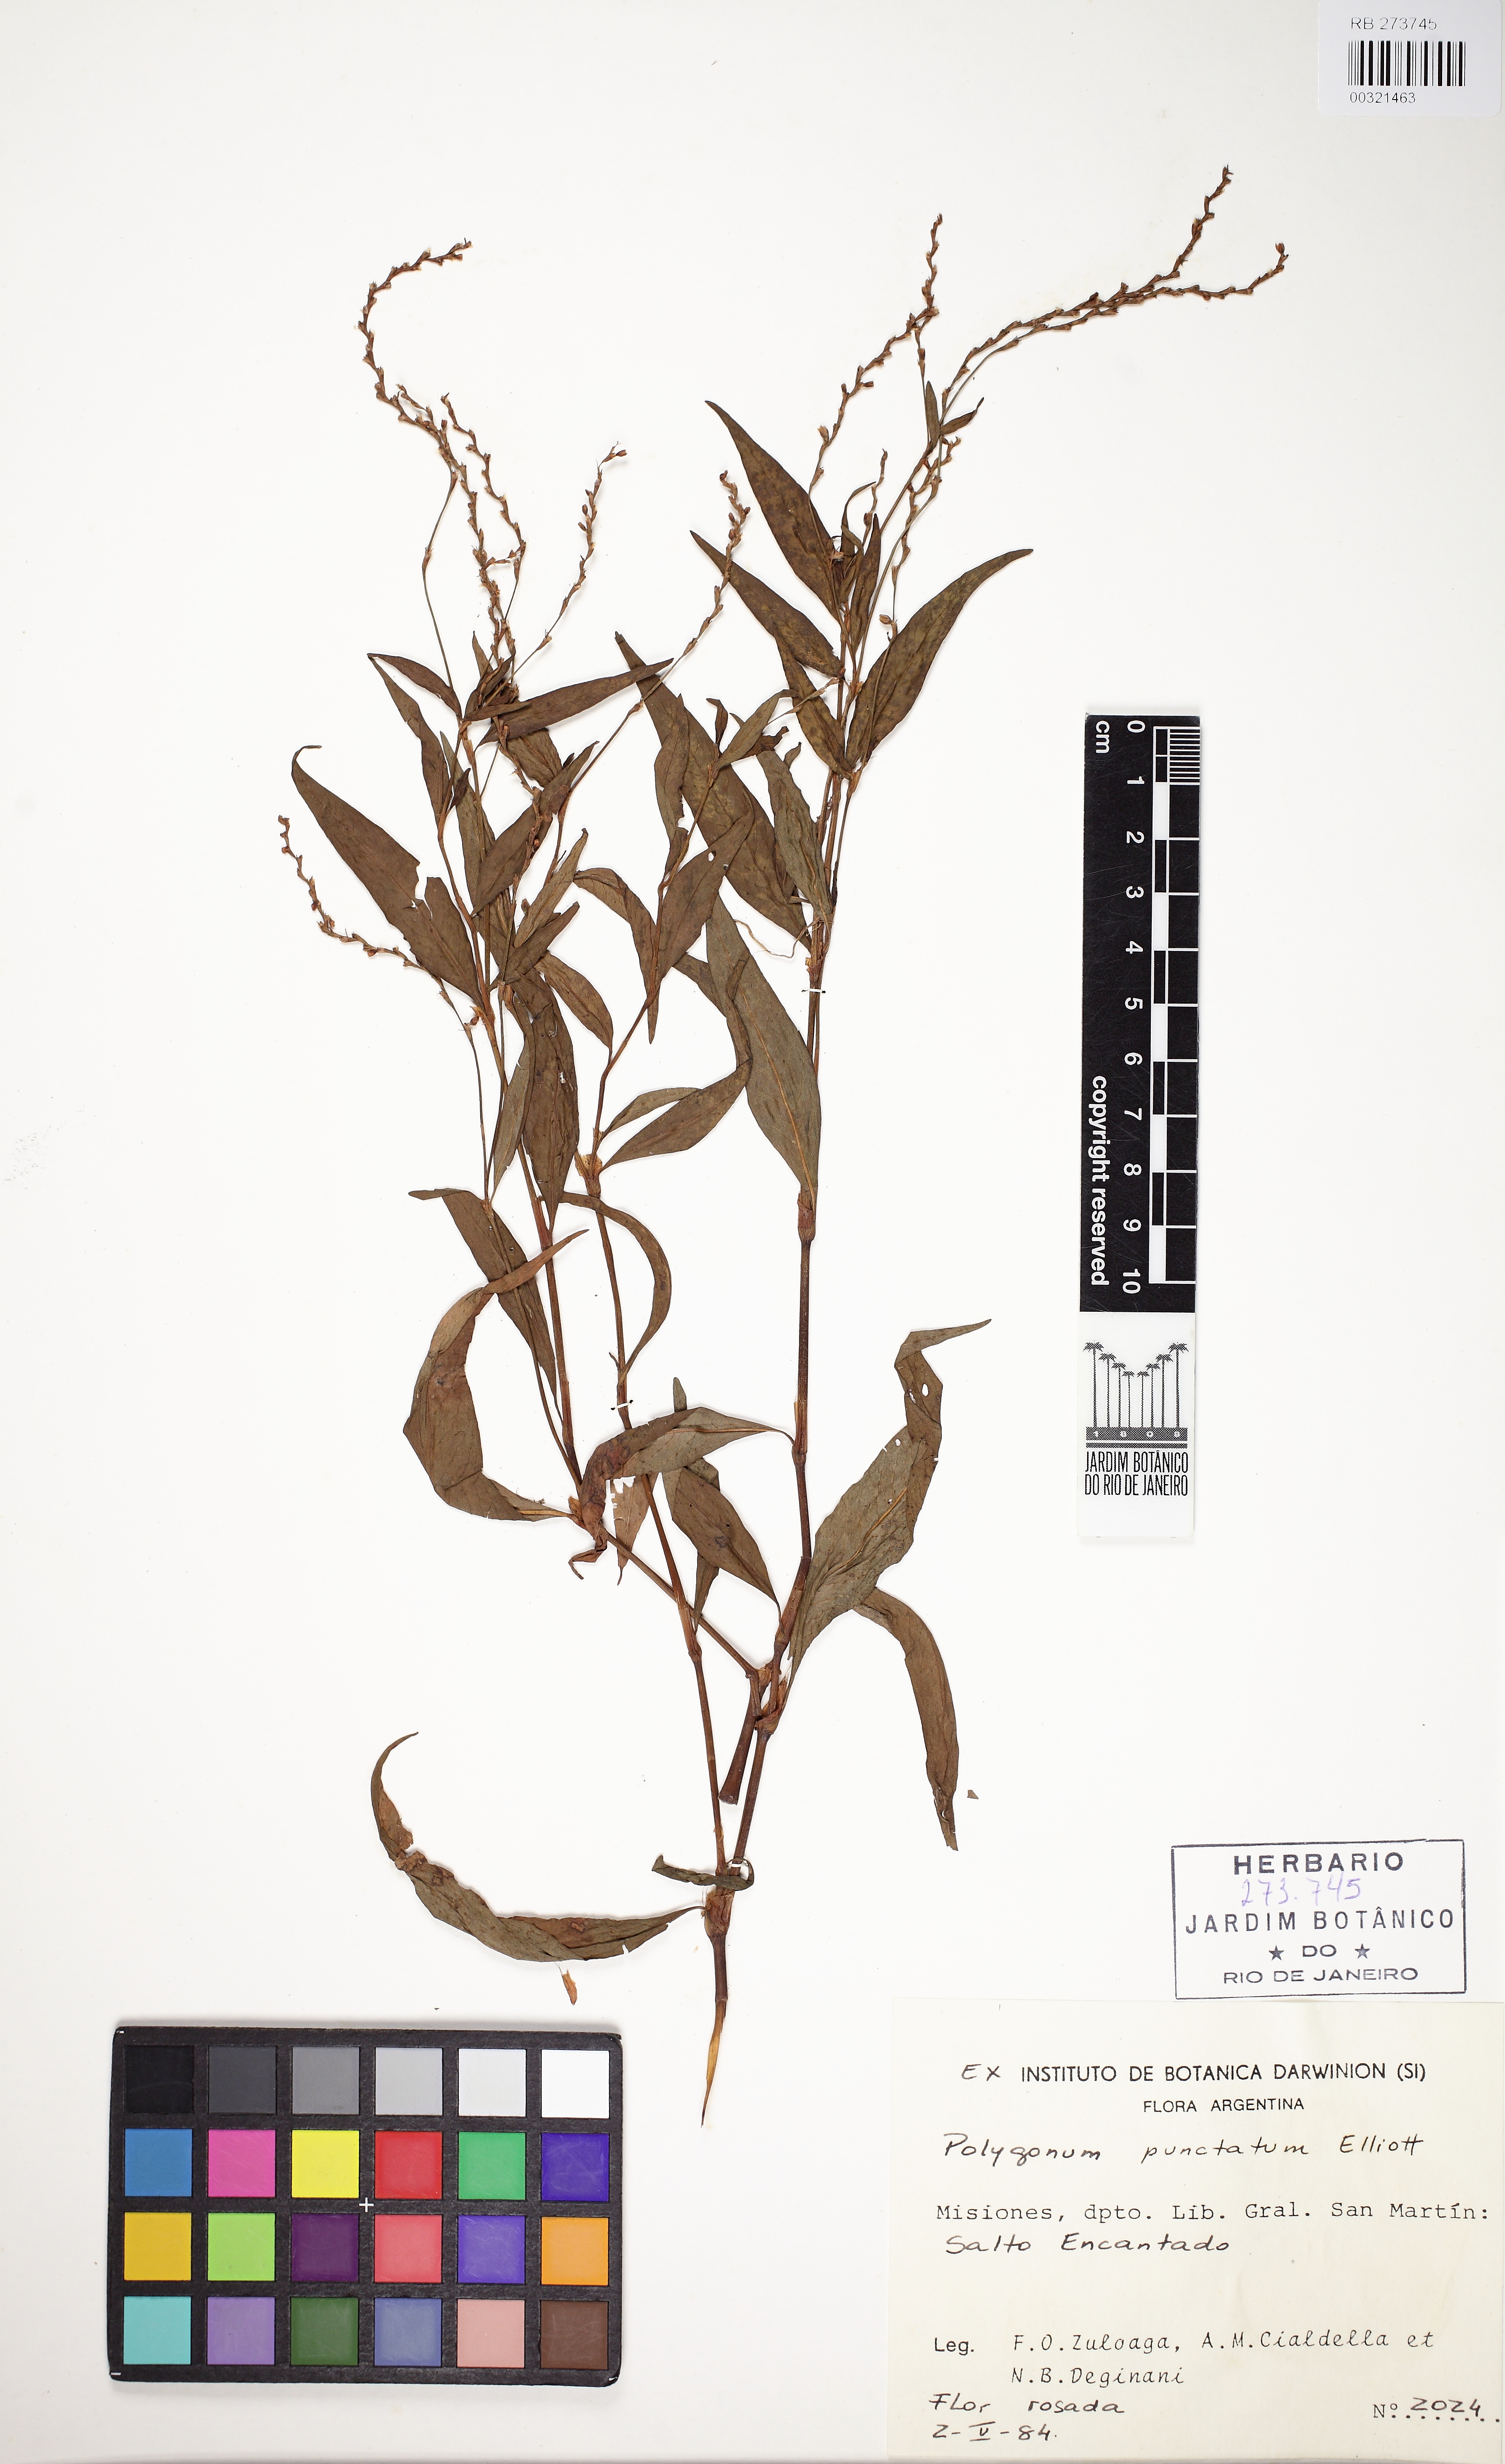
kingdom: Plantae
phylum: Tracheophyta
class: Magnoliopsida
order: Caryophyllales
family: Polygonaceae
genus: Persicaria
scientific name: Persicaria punctata
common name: Dotted smartweed
